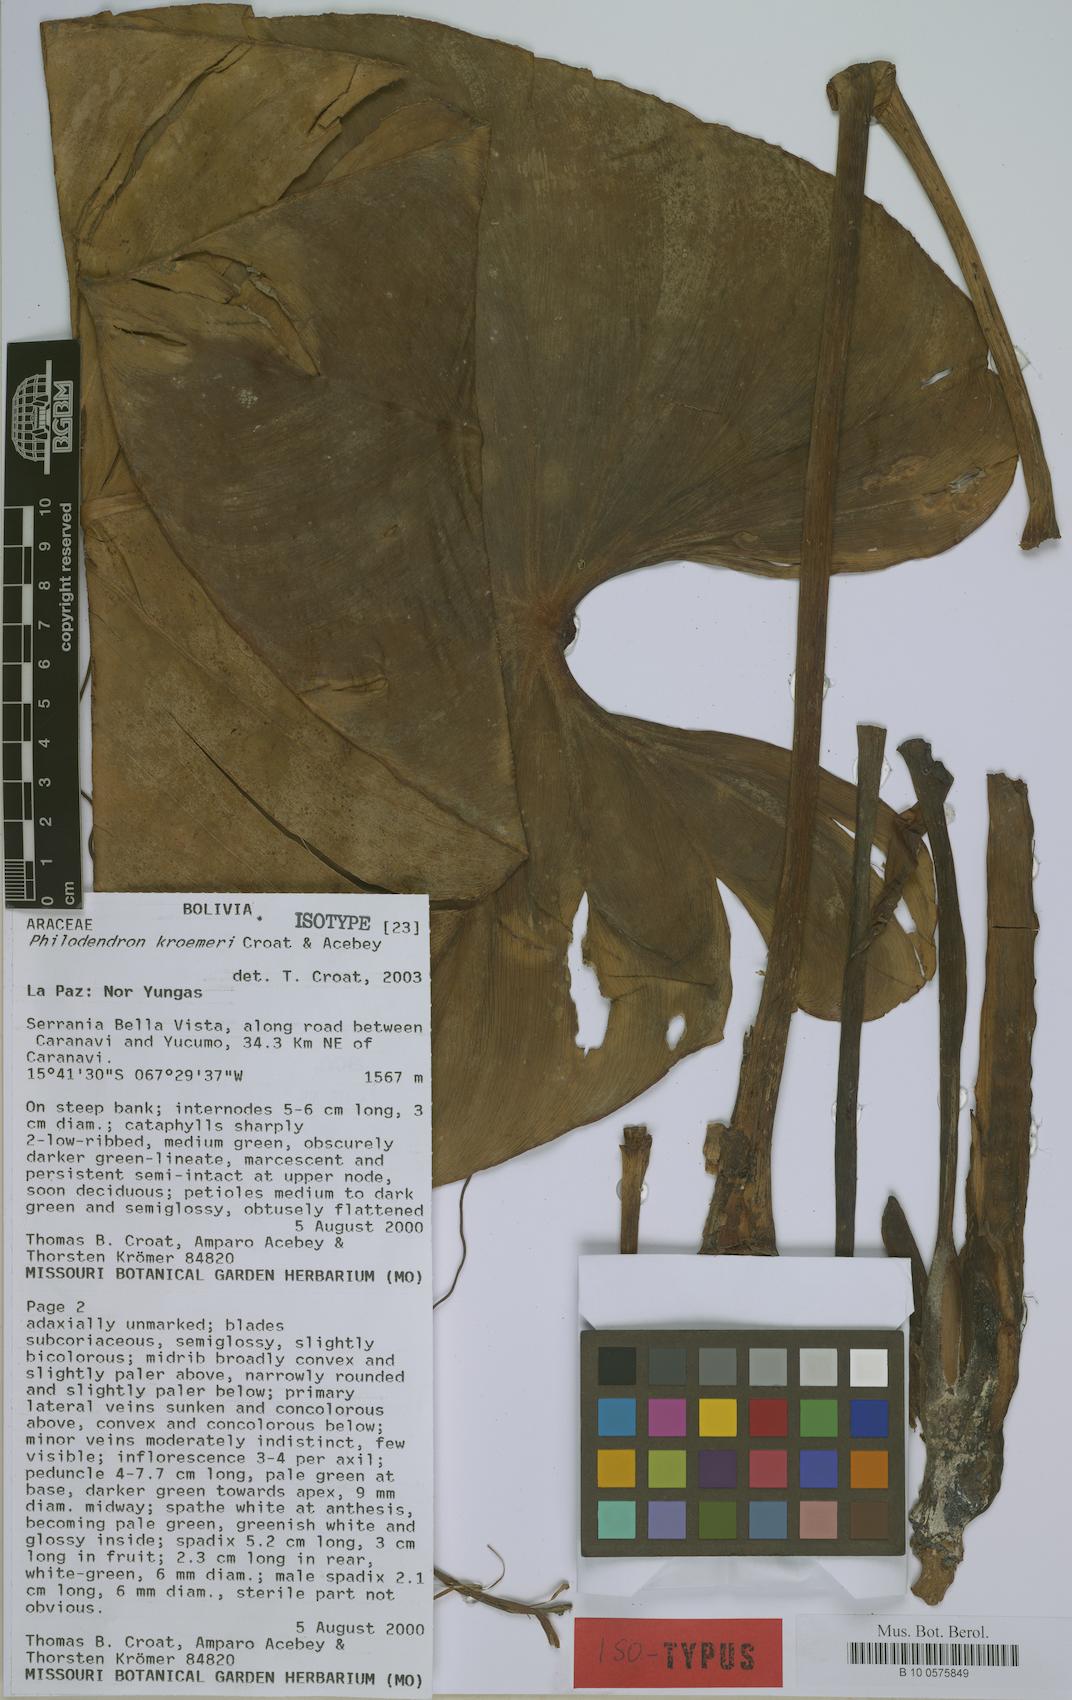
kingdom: Plantae
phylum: Tracheophyta
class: Liliopsida
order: Alismatales
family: Araceae
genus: Philodendron
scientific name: Philodendron kroemeri
